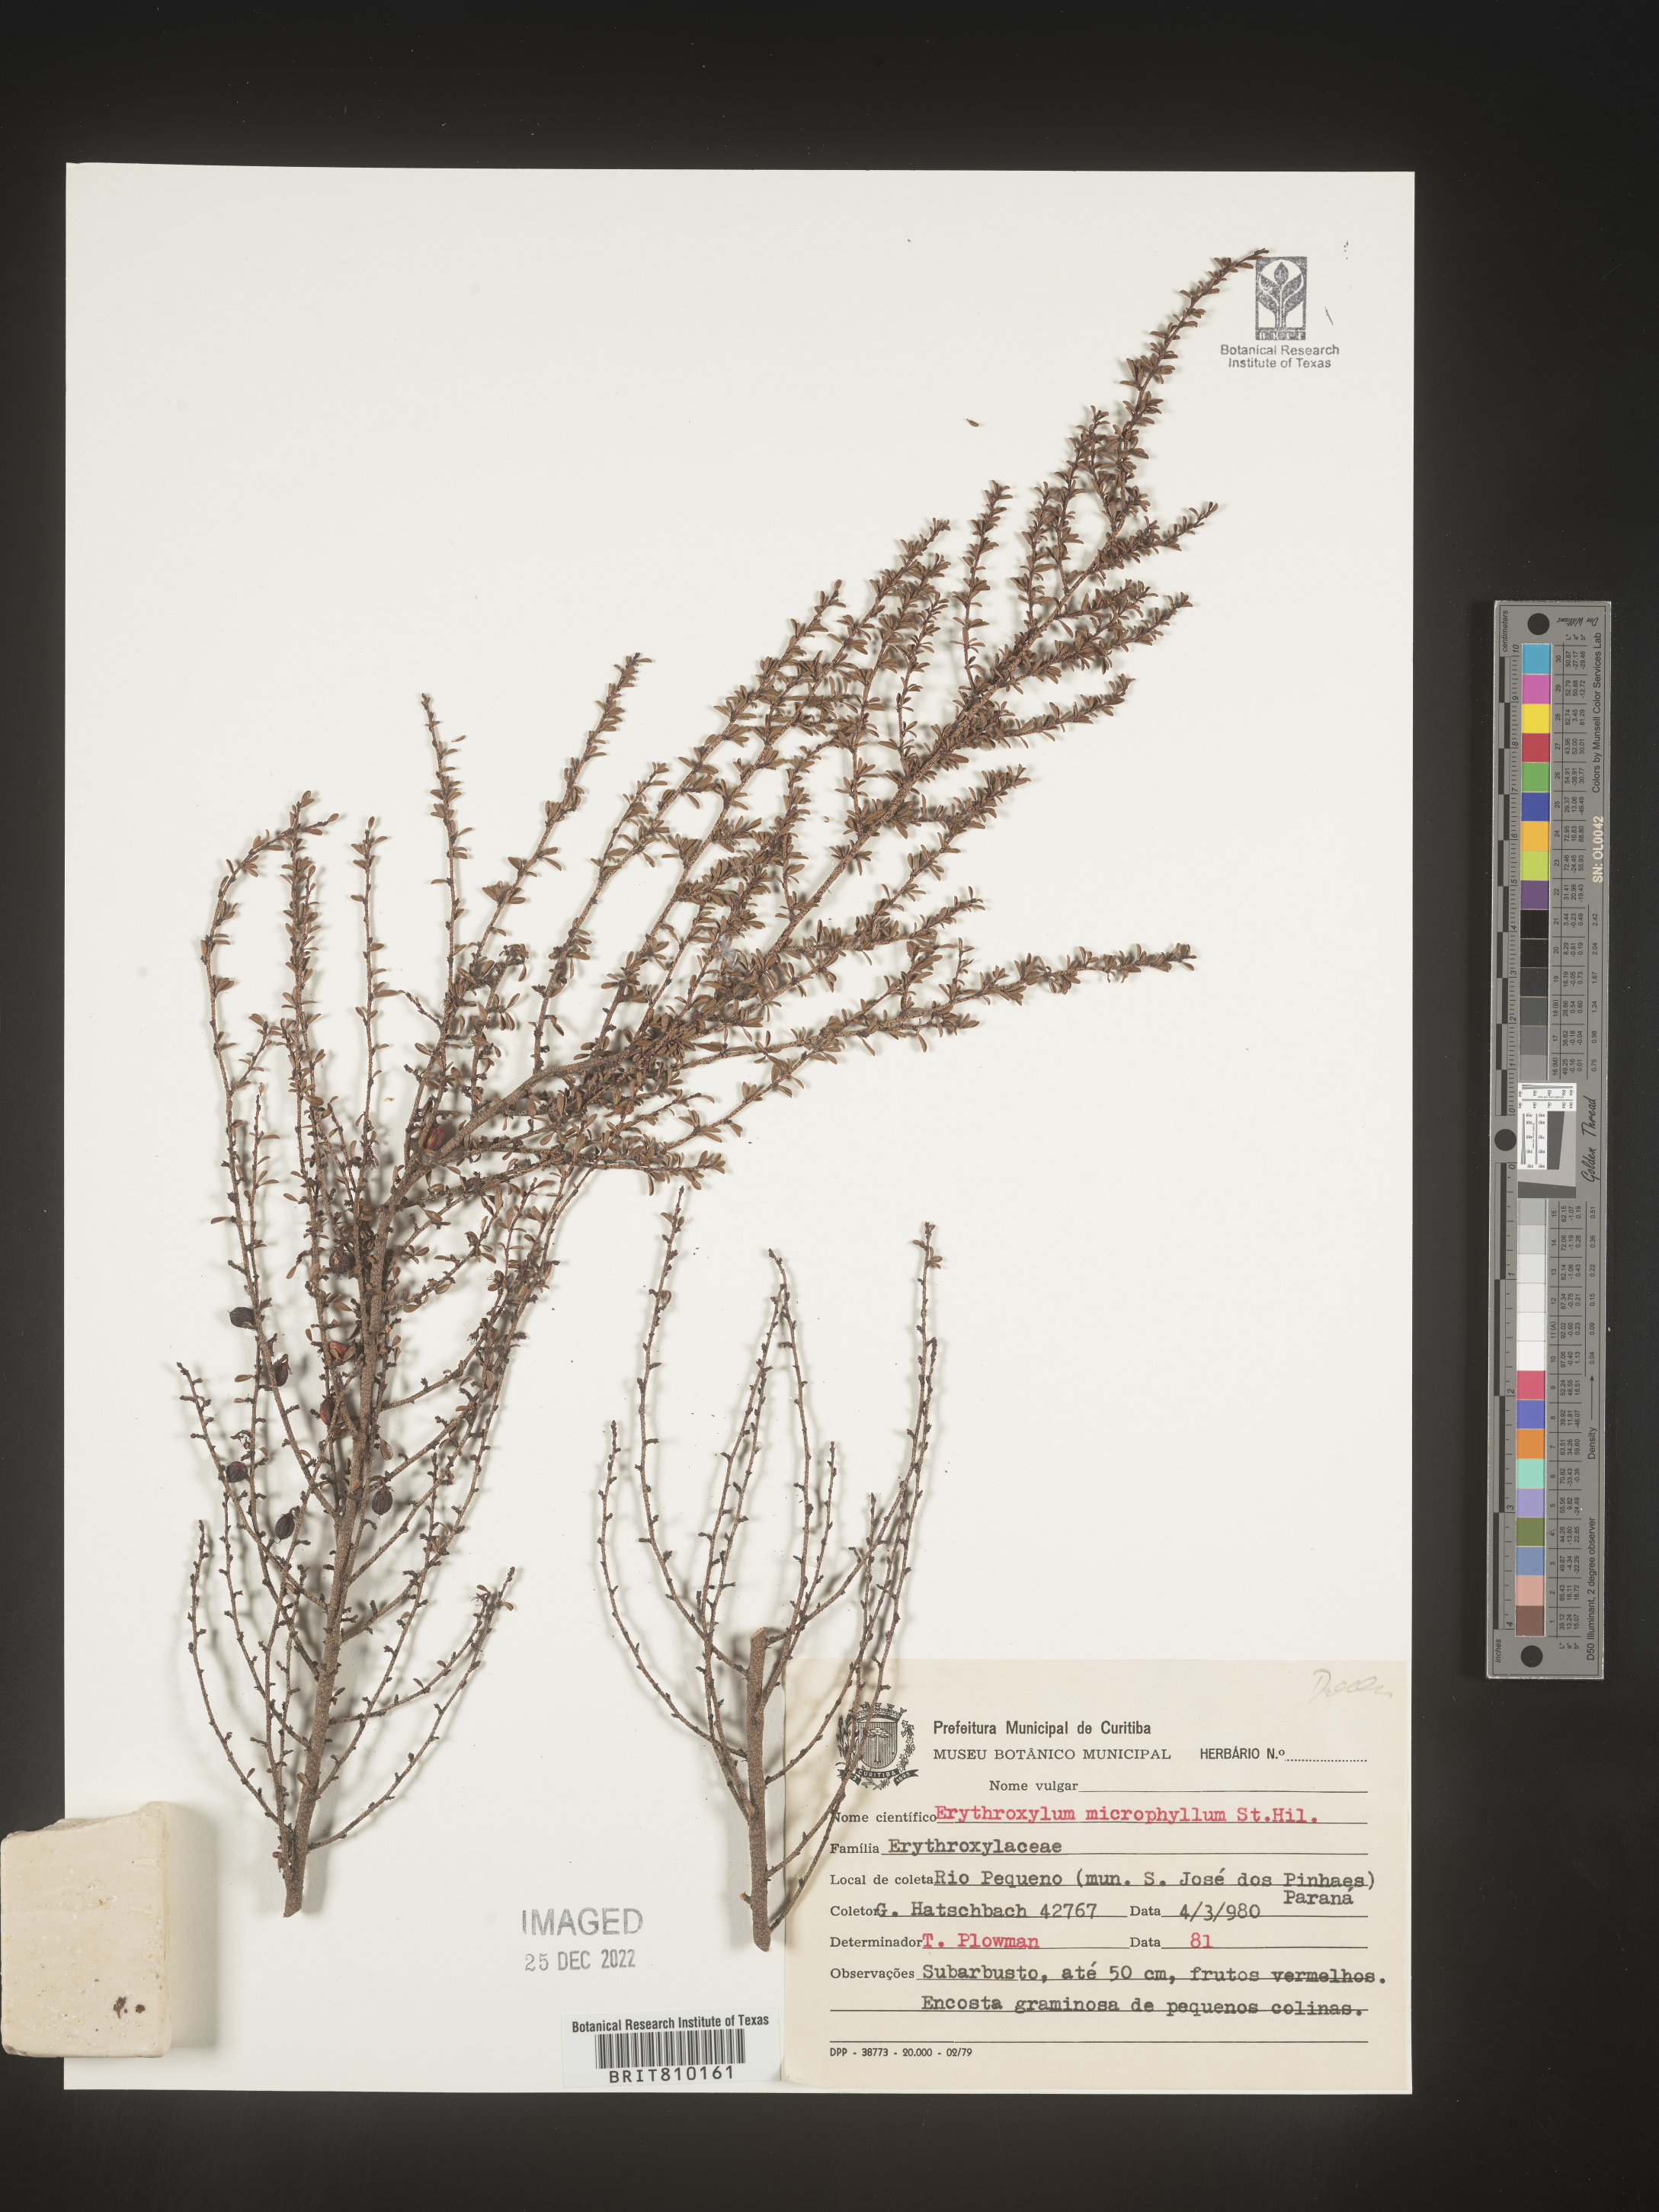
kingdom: Plantae
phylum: Tracheophyta
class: Magnoliopsida
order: Malpighiales
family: Erythroxylaceae
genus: Erythroxylum
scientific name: Erythroxylum
